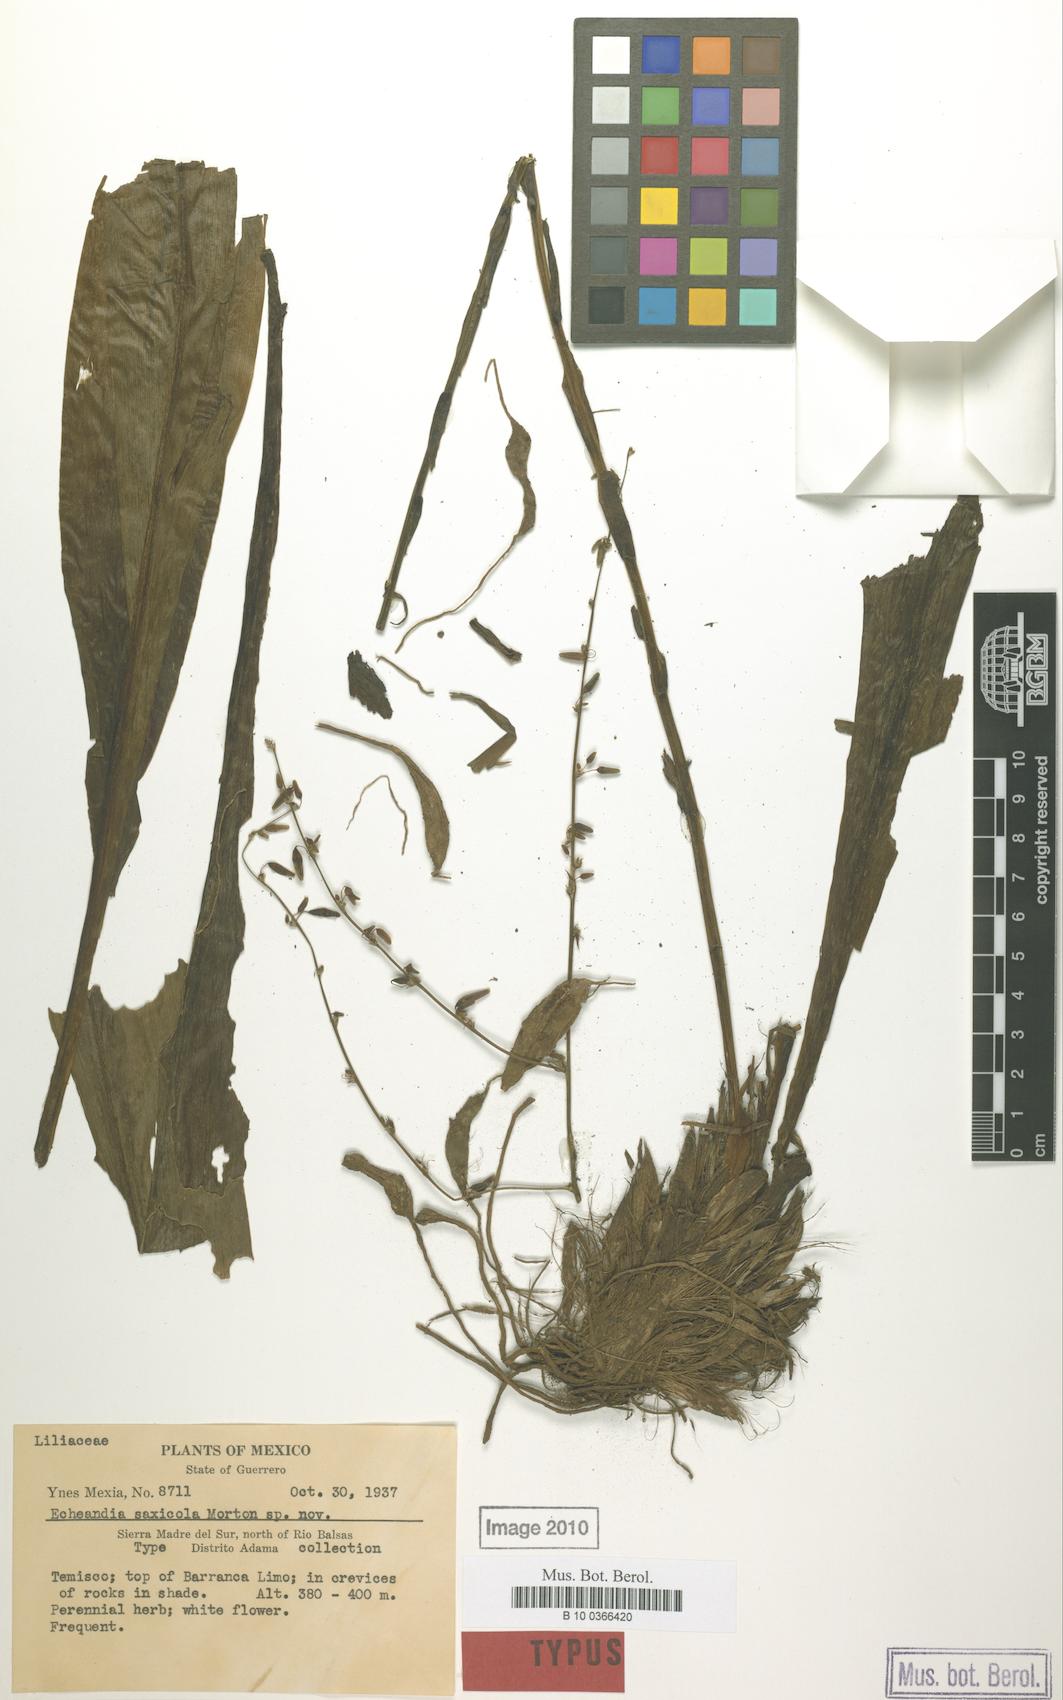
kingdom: Plantae
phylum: Tracheophyta
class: Liliopsida
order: Asparagales
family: Asparagaceae
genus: Echeandia
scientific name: Echeandia
